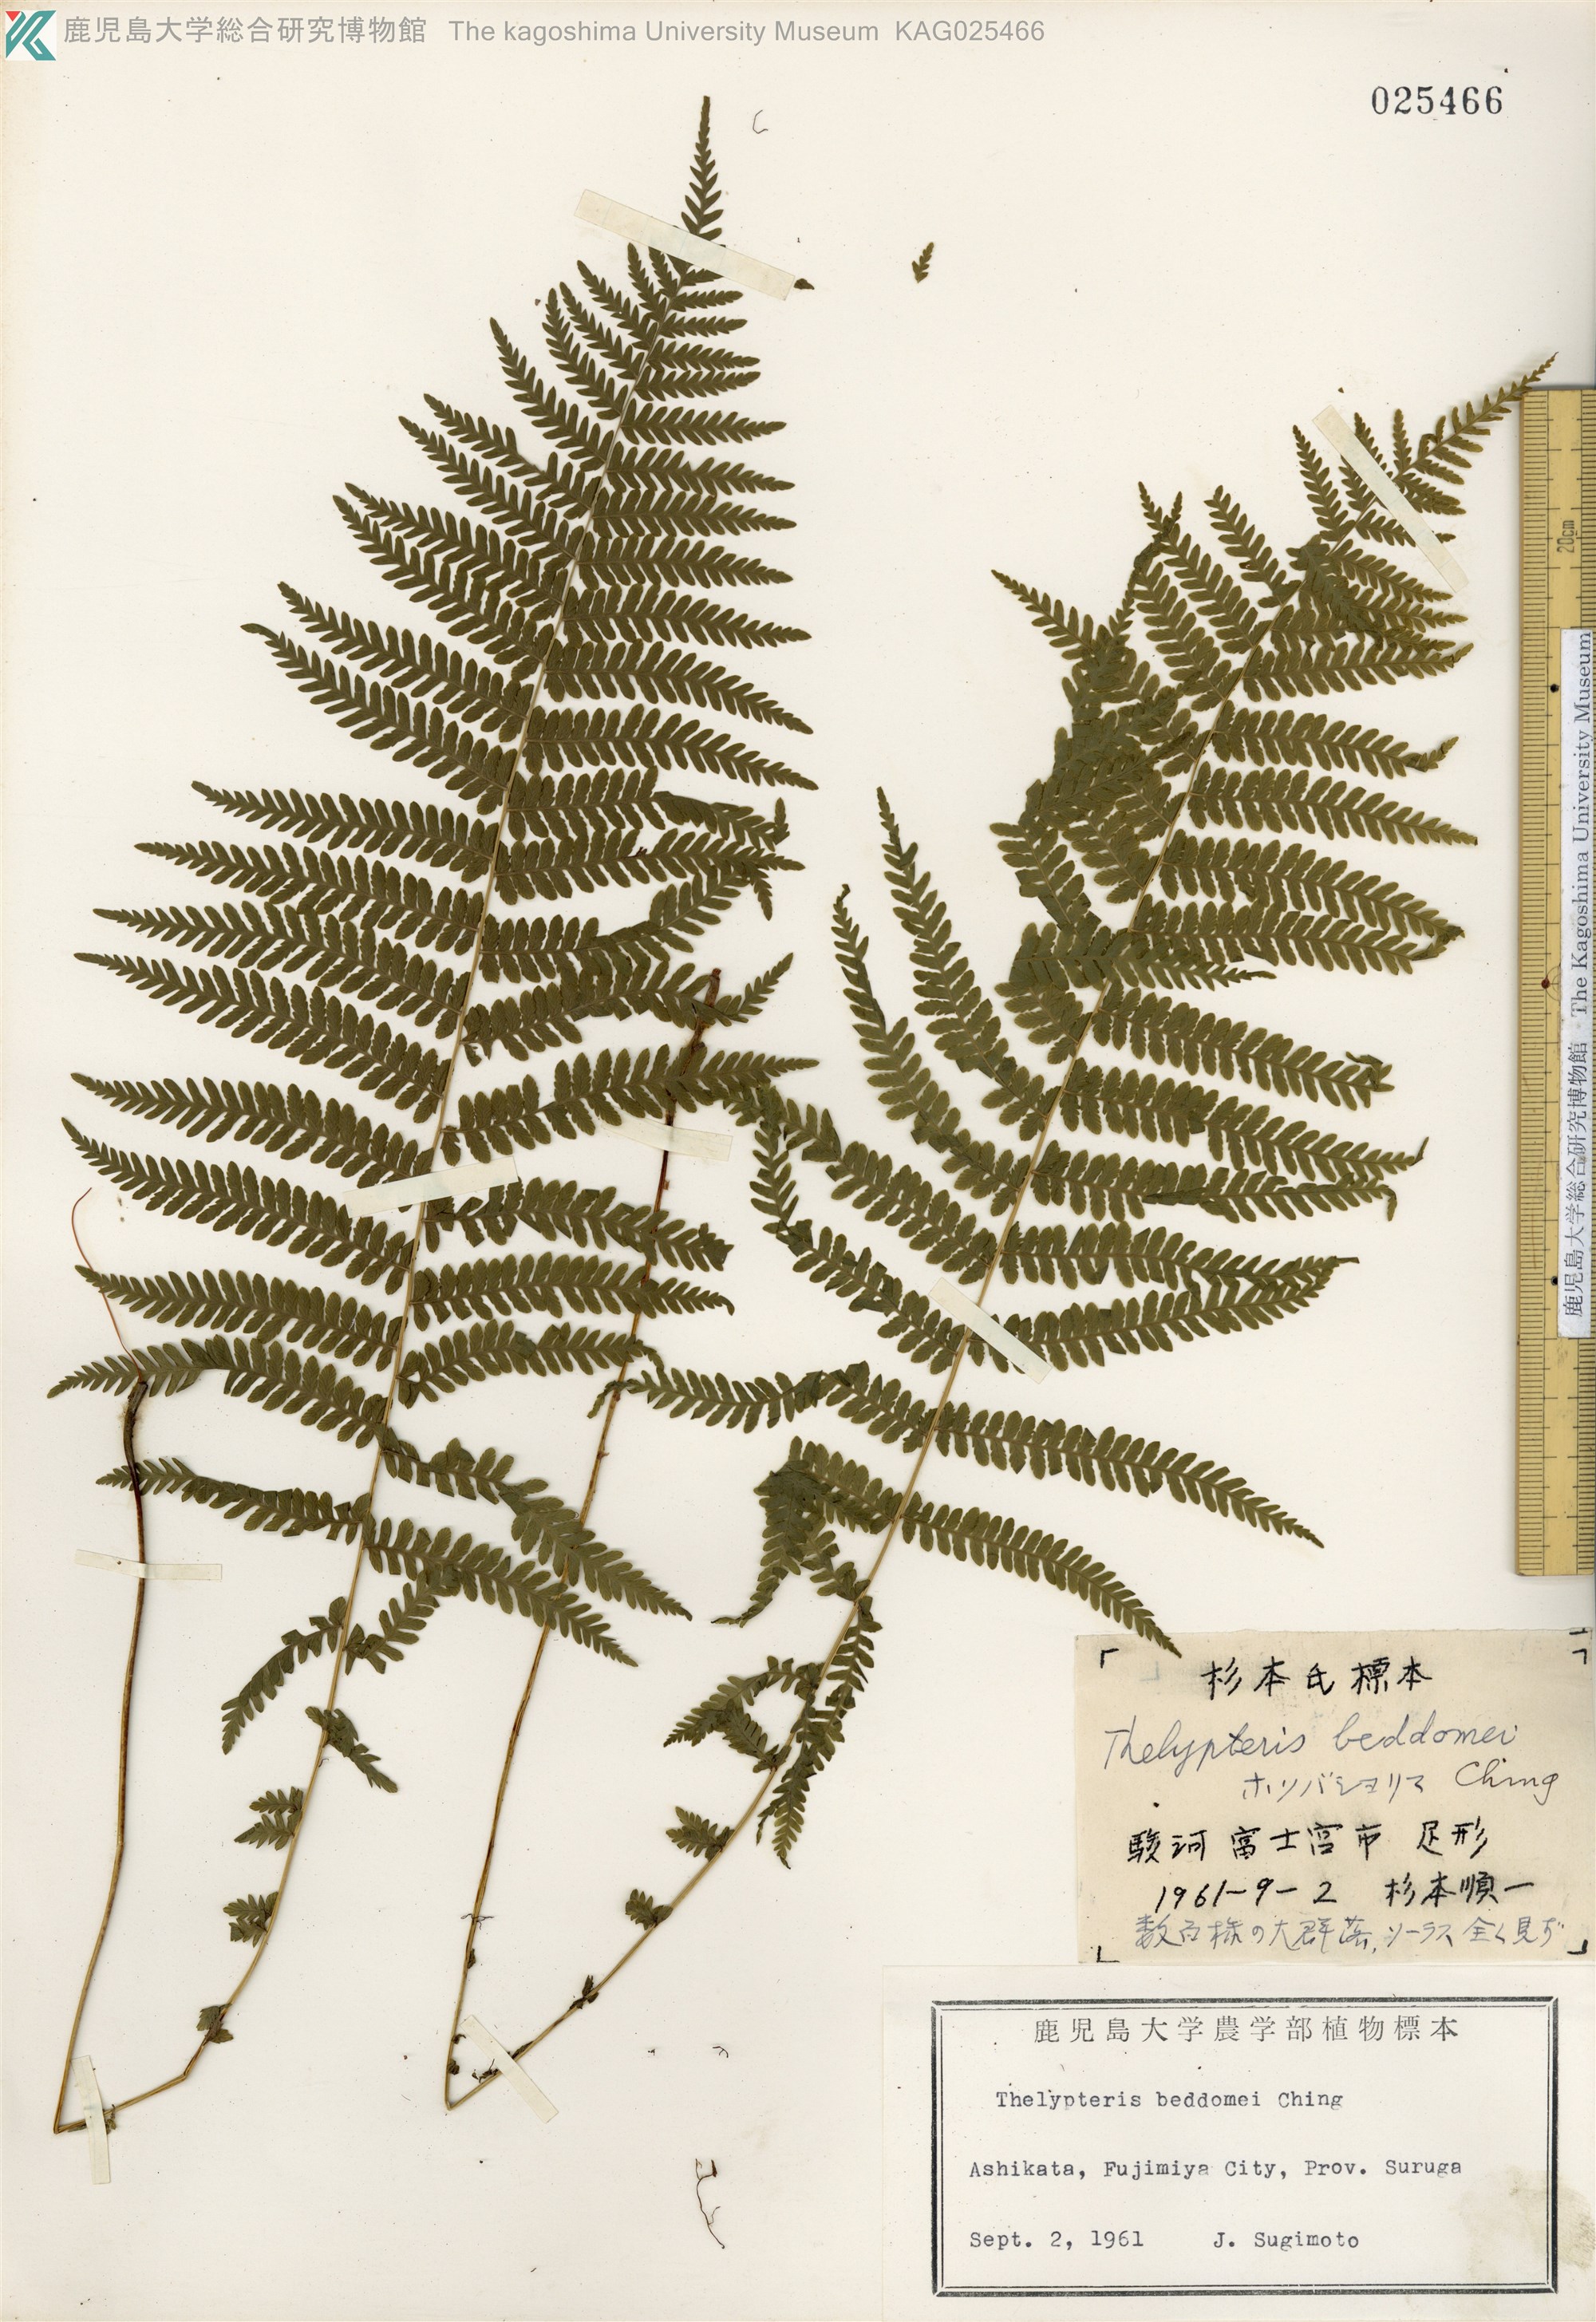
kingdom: Plantae
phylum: Tracheophyta
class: Polypodiopsida
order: Polypodiales
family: Thelypteridaceae
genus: Amauropelta
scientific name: Amauropelta beddomei
